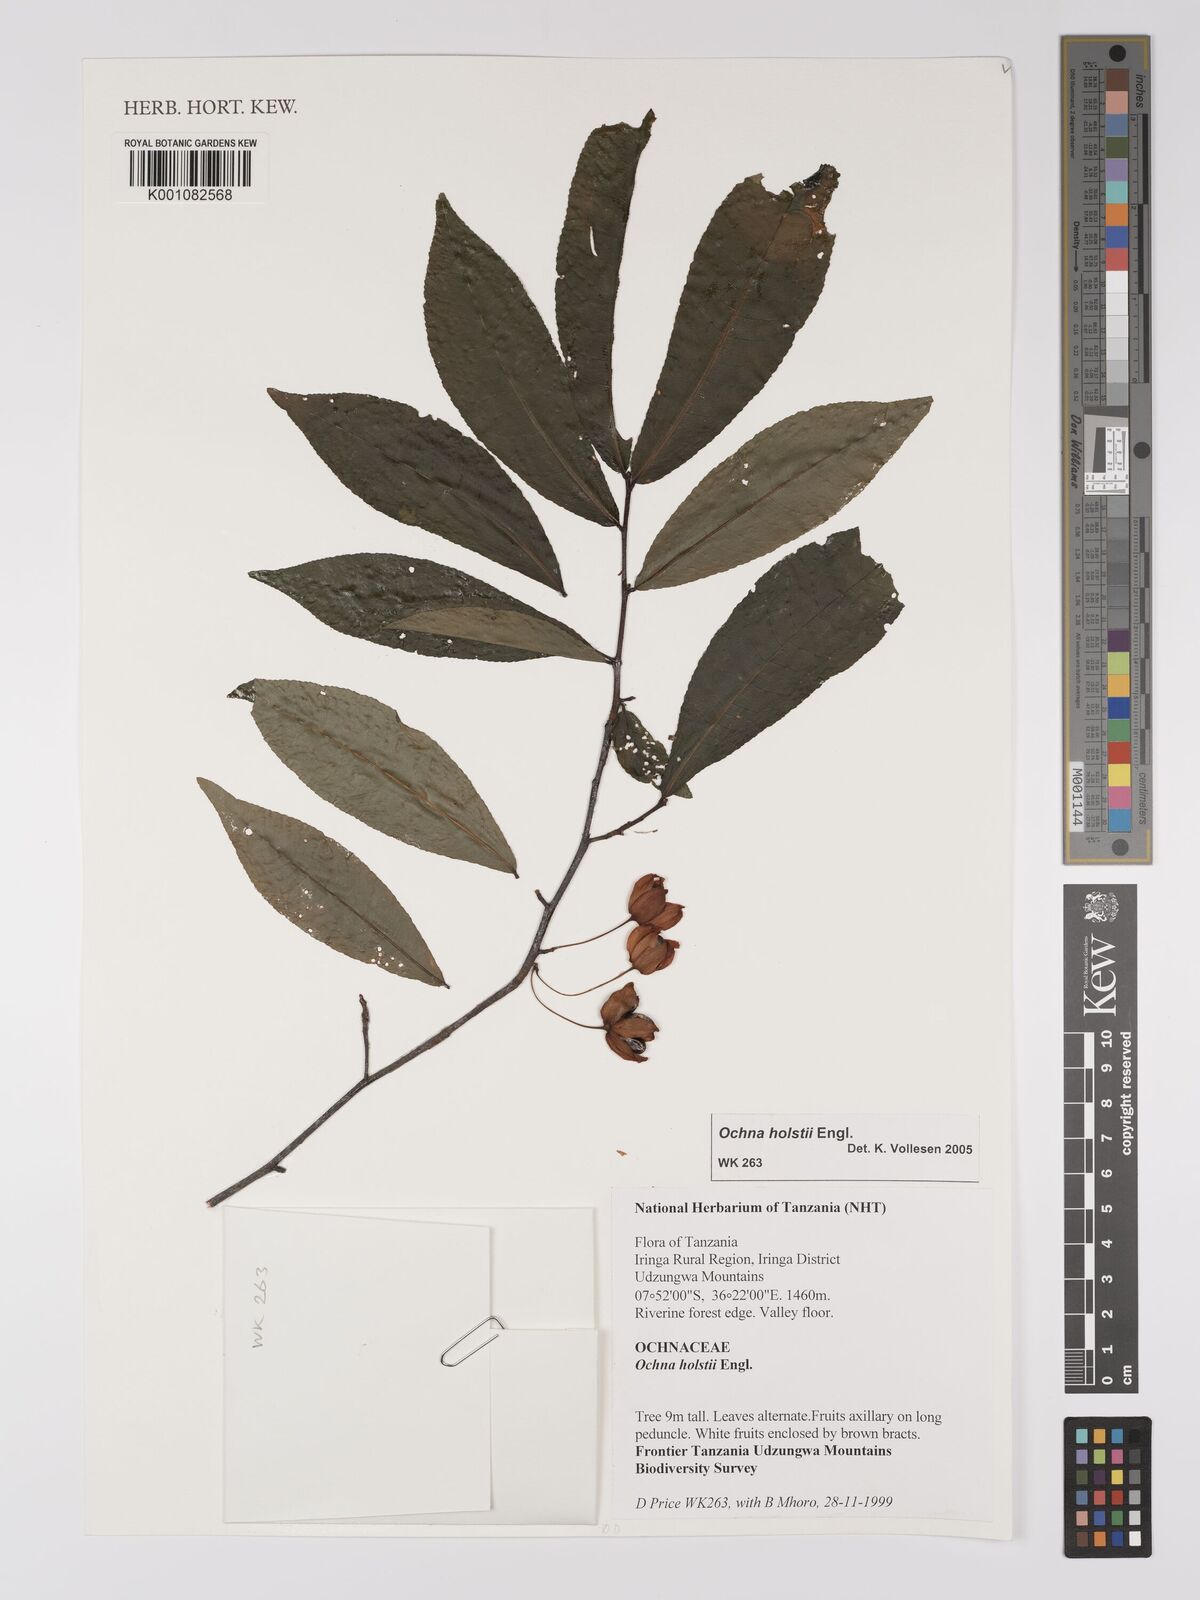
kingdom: Plantae
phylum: Tracheophyta
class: Magnoliopsida
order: Malpighiales
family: Ochnaceae
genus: Ochna
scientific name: Ochna holstii
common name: Red ironwood
